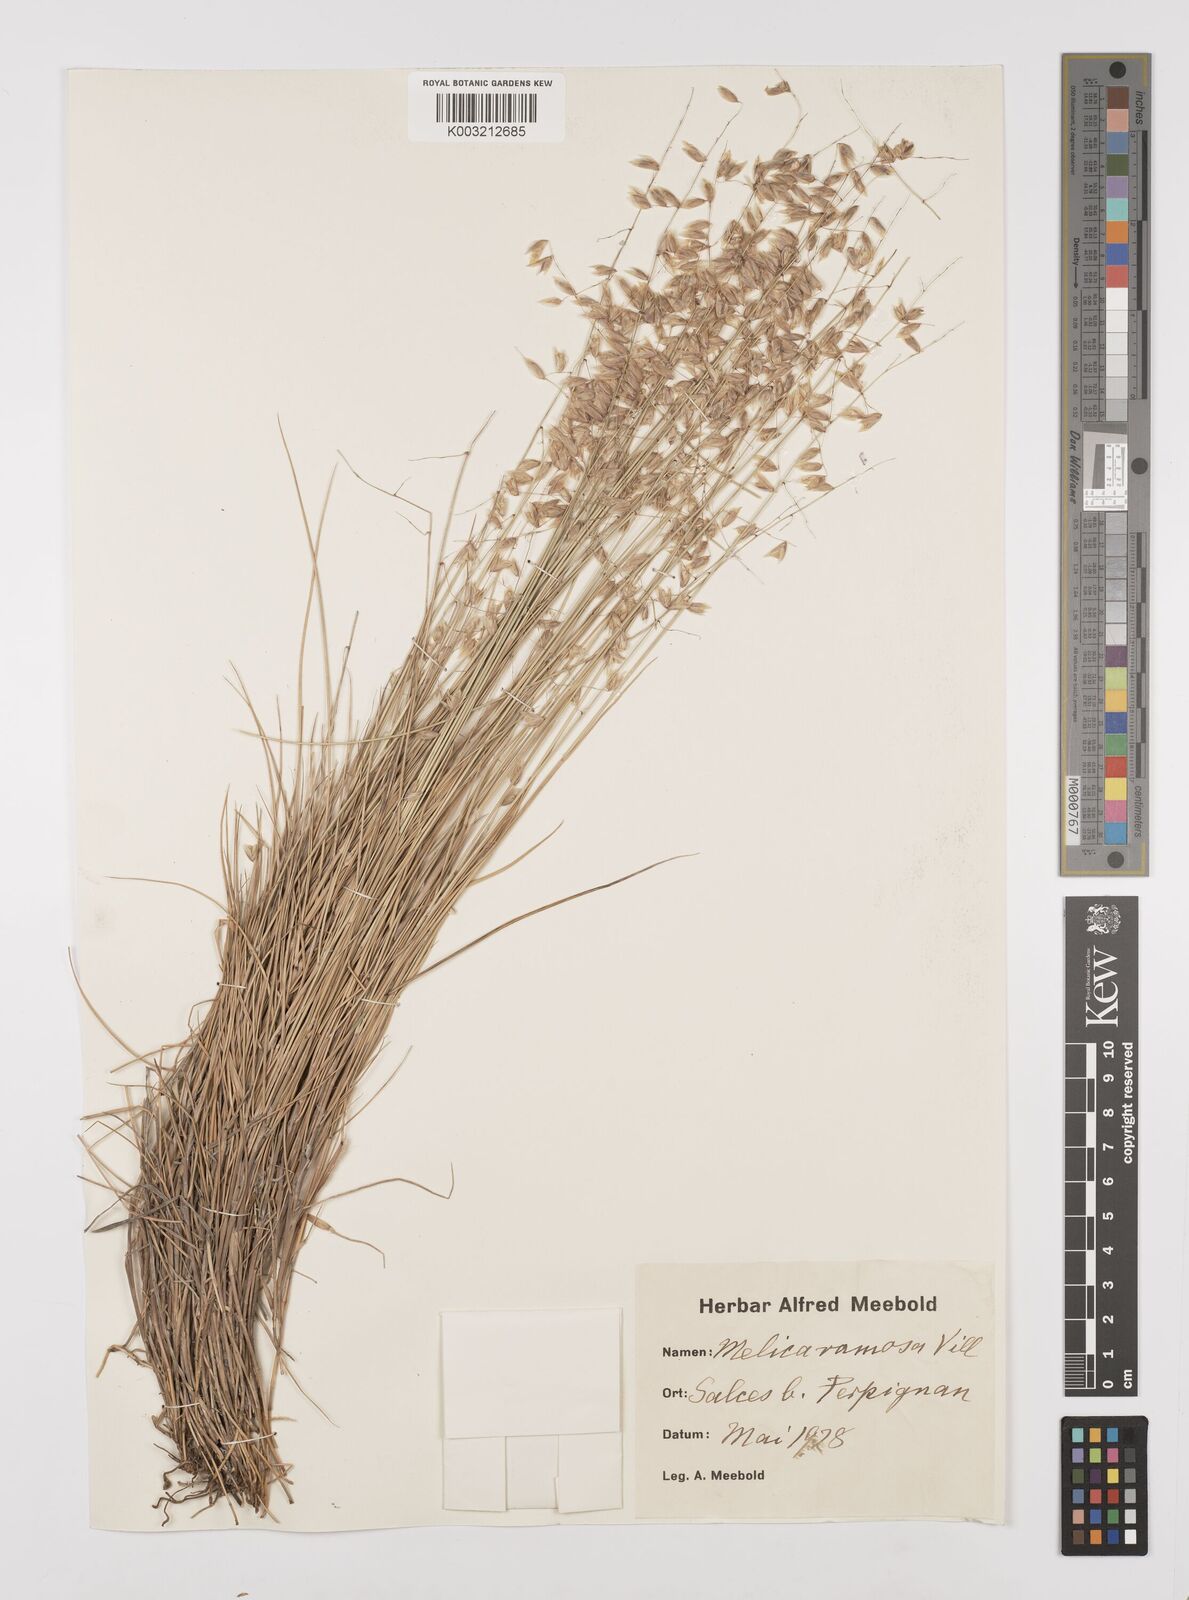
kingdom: Plantae
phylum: Tracheophyta
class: Liliopsida
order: Poales
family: Poaceae
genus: Melica
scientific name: Melica nutans
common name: Mountain melick
